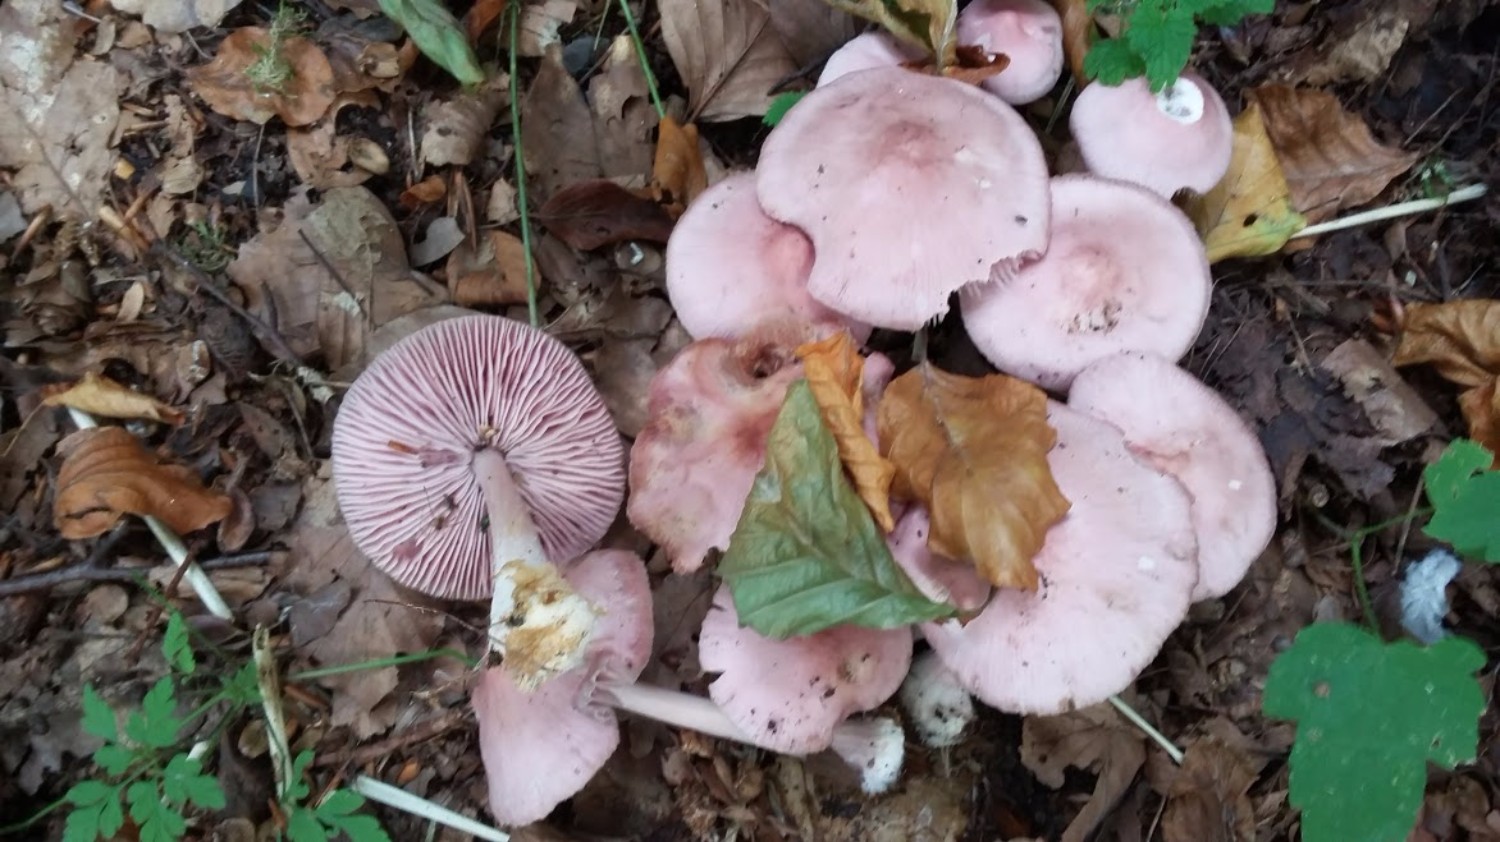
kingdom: Fungi
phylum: Basidiomycota
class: Agaricomycetes
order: Agaricales
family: Mycenaceae
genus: Mycena
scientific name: Mycena rosea
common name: rosa huesvamp
